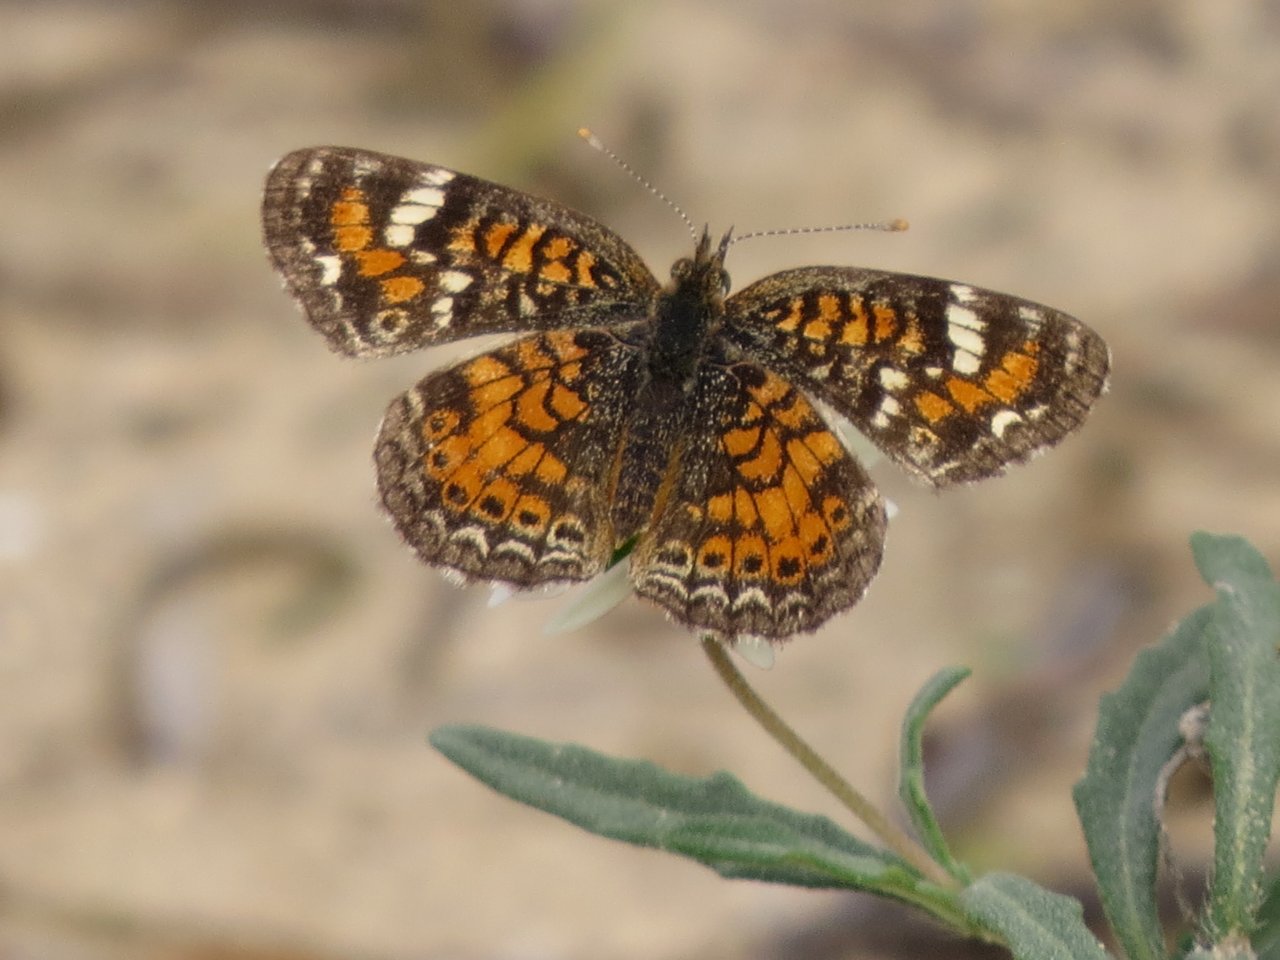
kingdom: Animalia
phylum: Arthropoda
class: Insecta
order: Lepidoptera
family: Nymphalidae
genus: Phyciodes
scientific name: Phyciodes phaon
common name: Phaon Crescent
